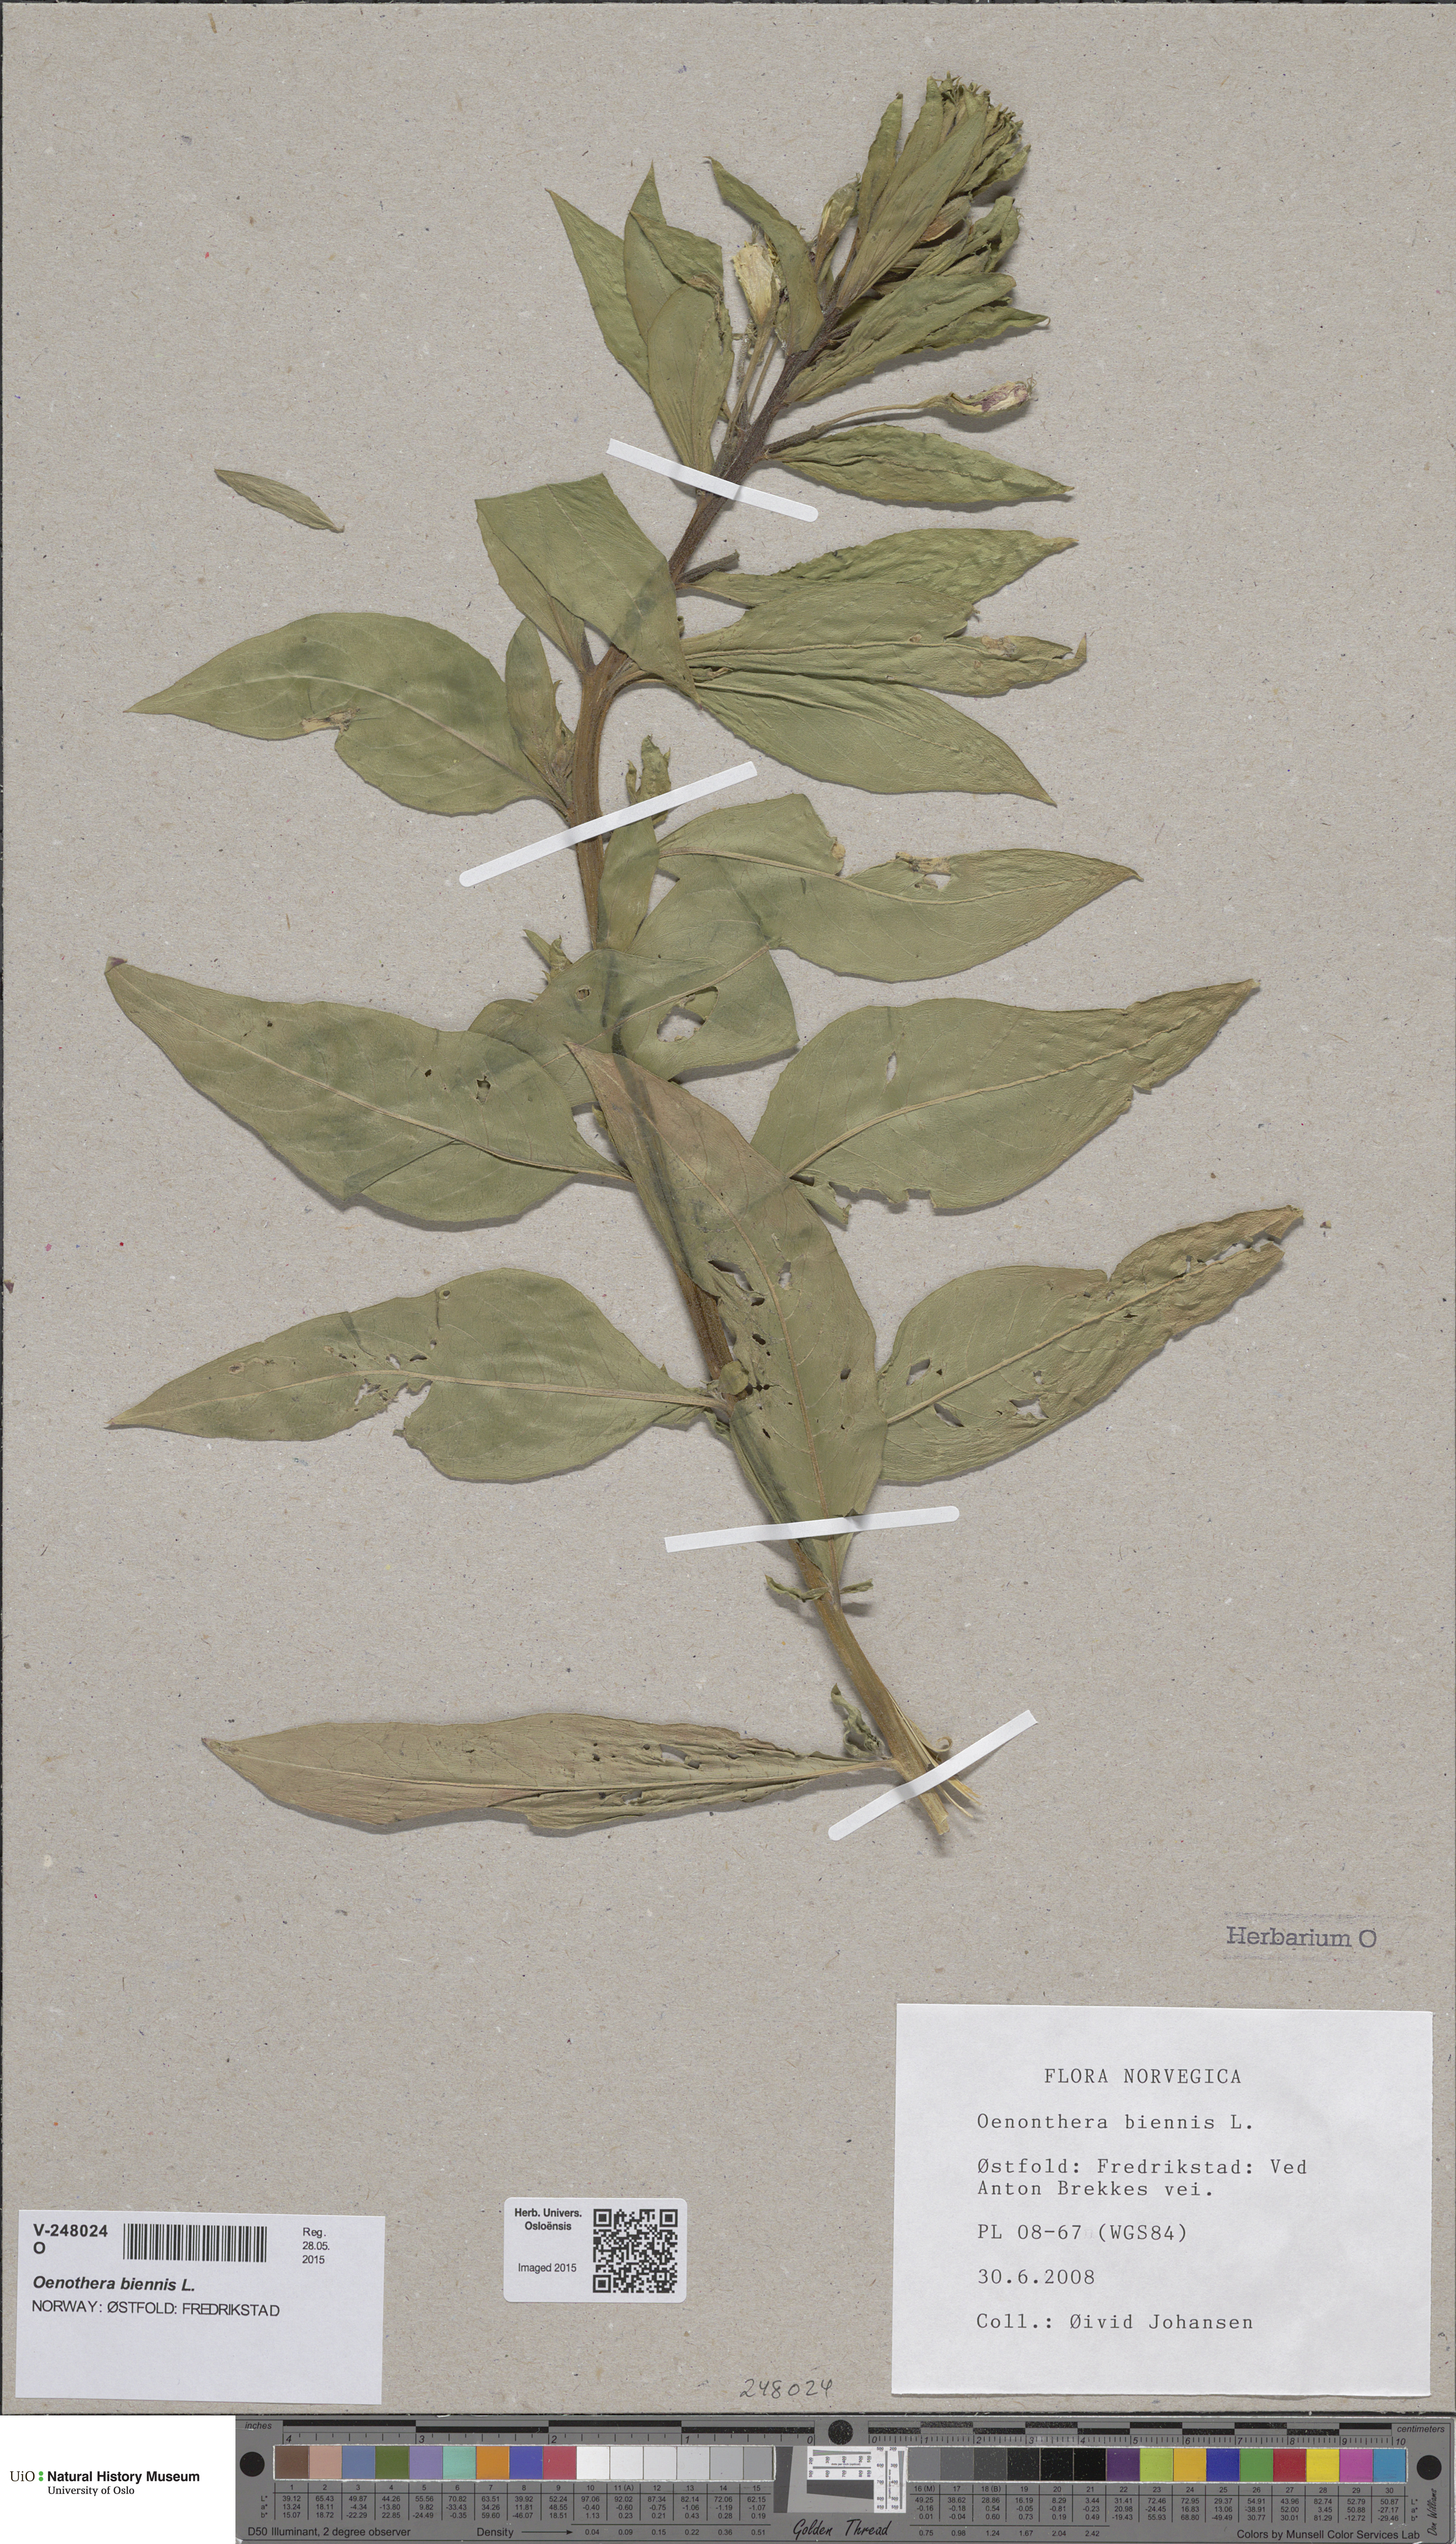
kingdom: Plantae
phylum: Tracheophyta
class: Magnoliopsida
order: Myrtales
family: Onagraceae
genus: Oenothera
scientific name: Oenothera biennis
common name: Common evening-primrose
